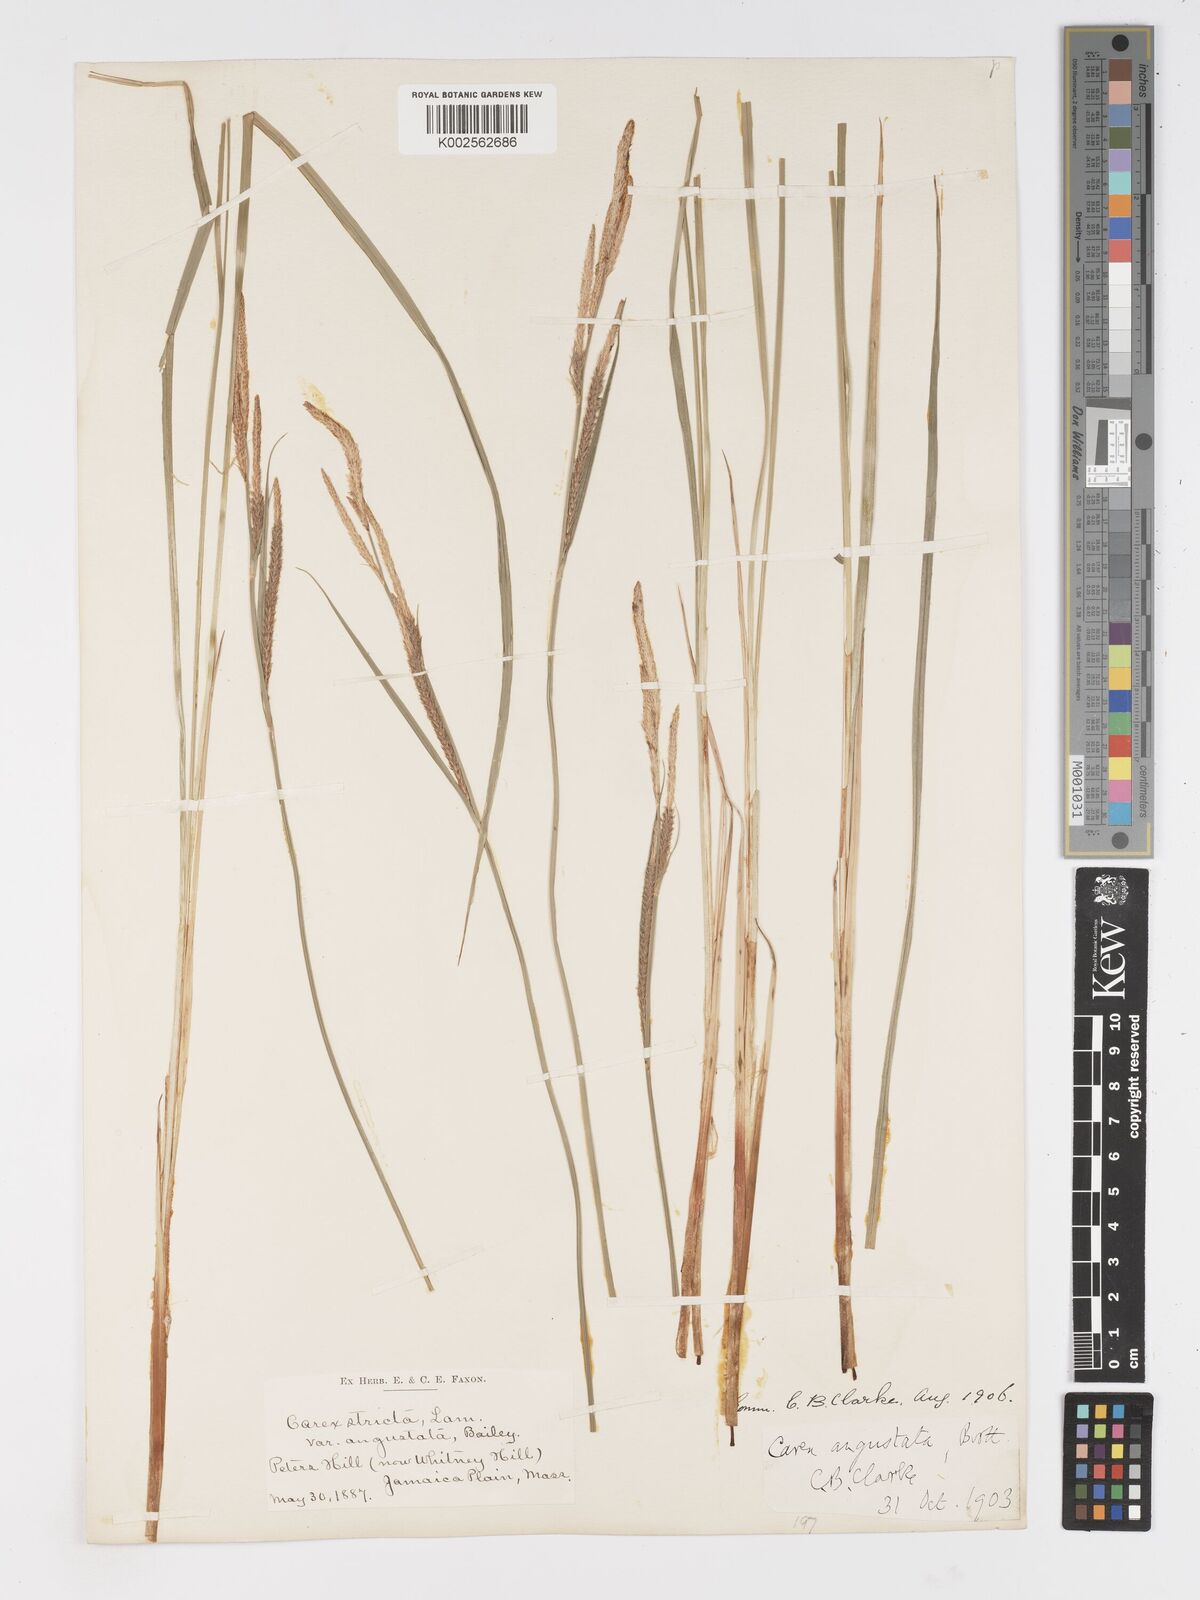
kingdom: Plantae
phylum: Tracheophyta
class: Liliopsida
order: Poales
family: Cyperaceae
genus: Carex
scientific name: Carex stricta
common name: Hummock sedge
